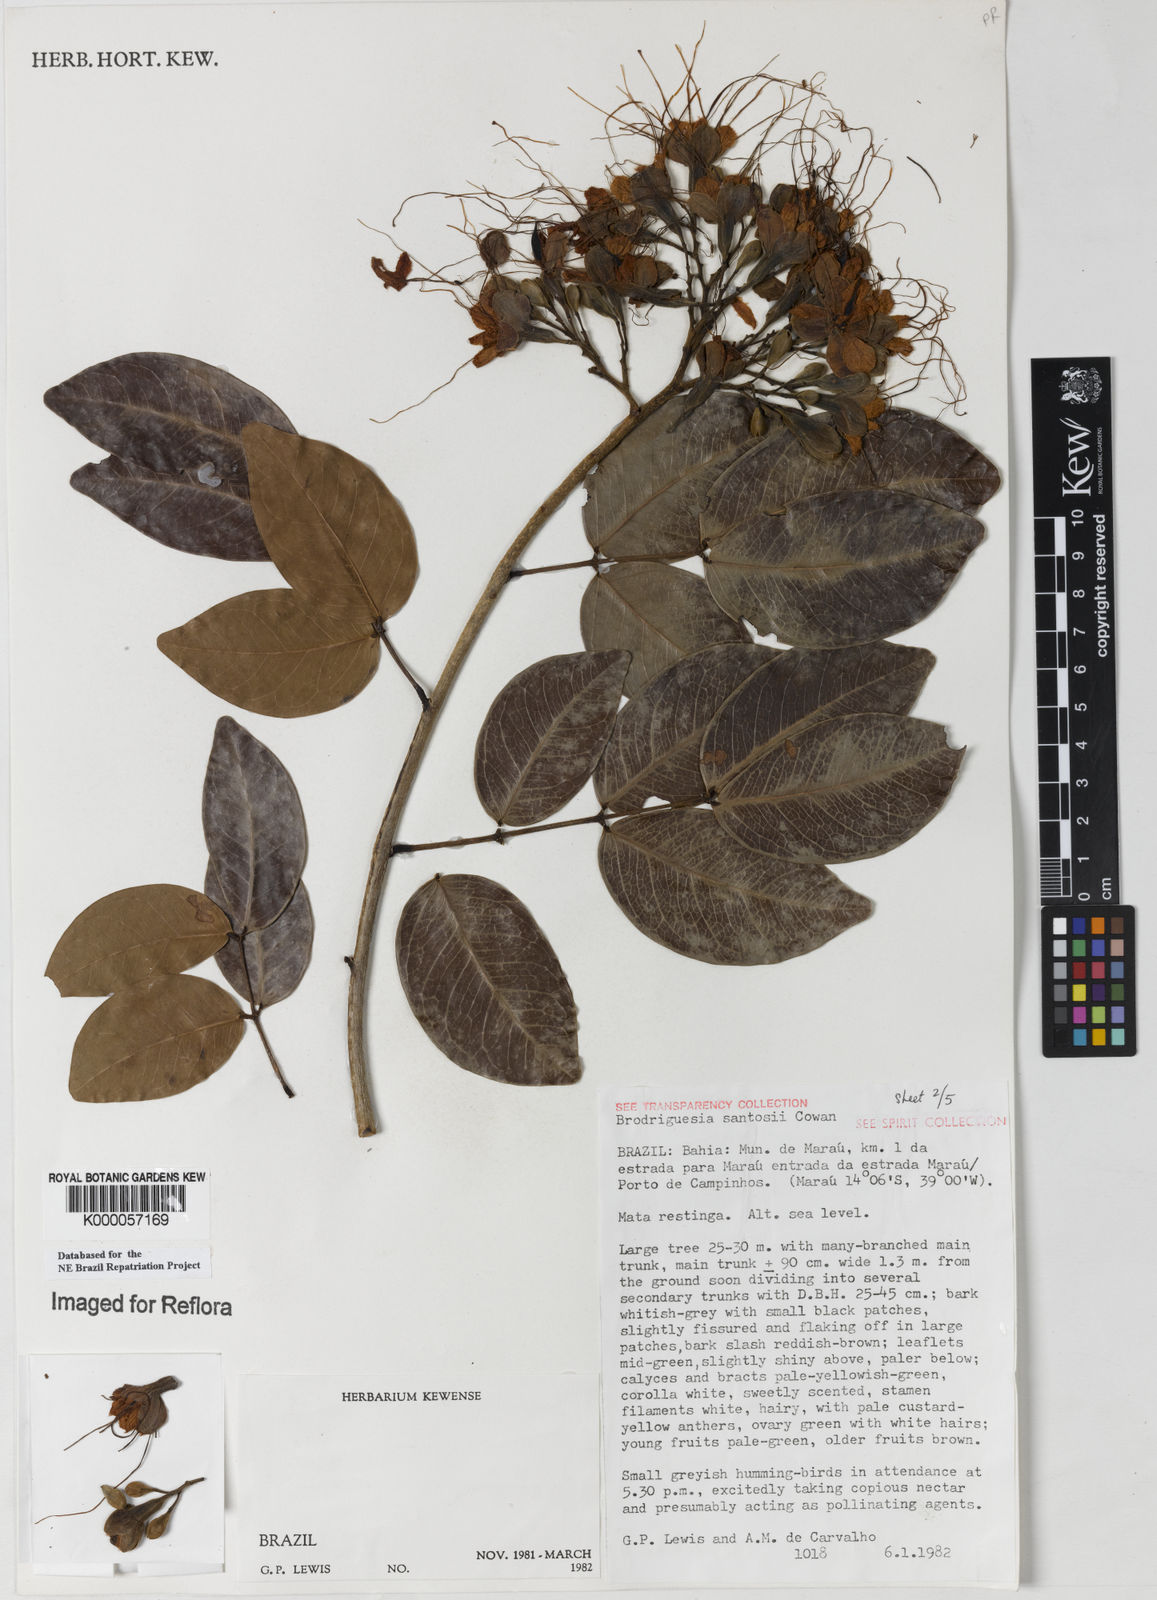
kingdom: Plantae
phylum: Tracheophyta
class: Magnoliopsida
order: Fabales
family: Fabaceae
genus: Brodriguesia
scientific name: Brodriguesia santosii
